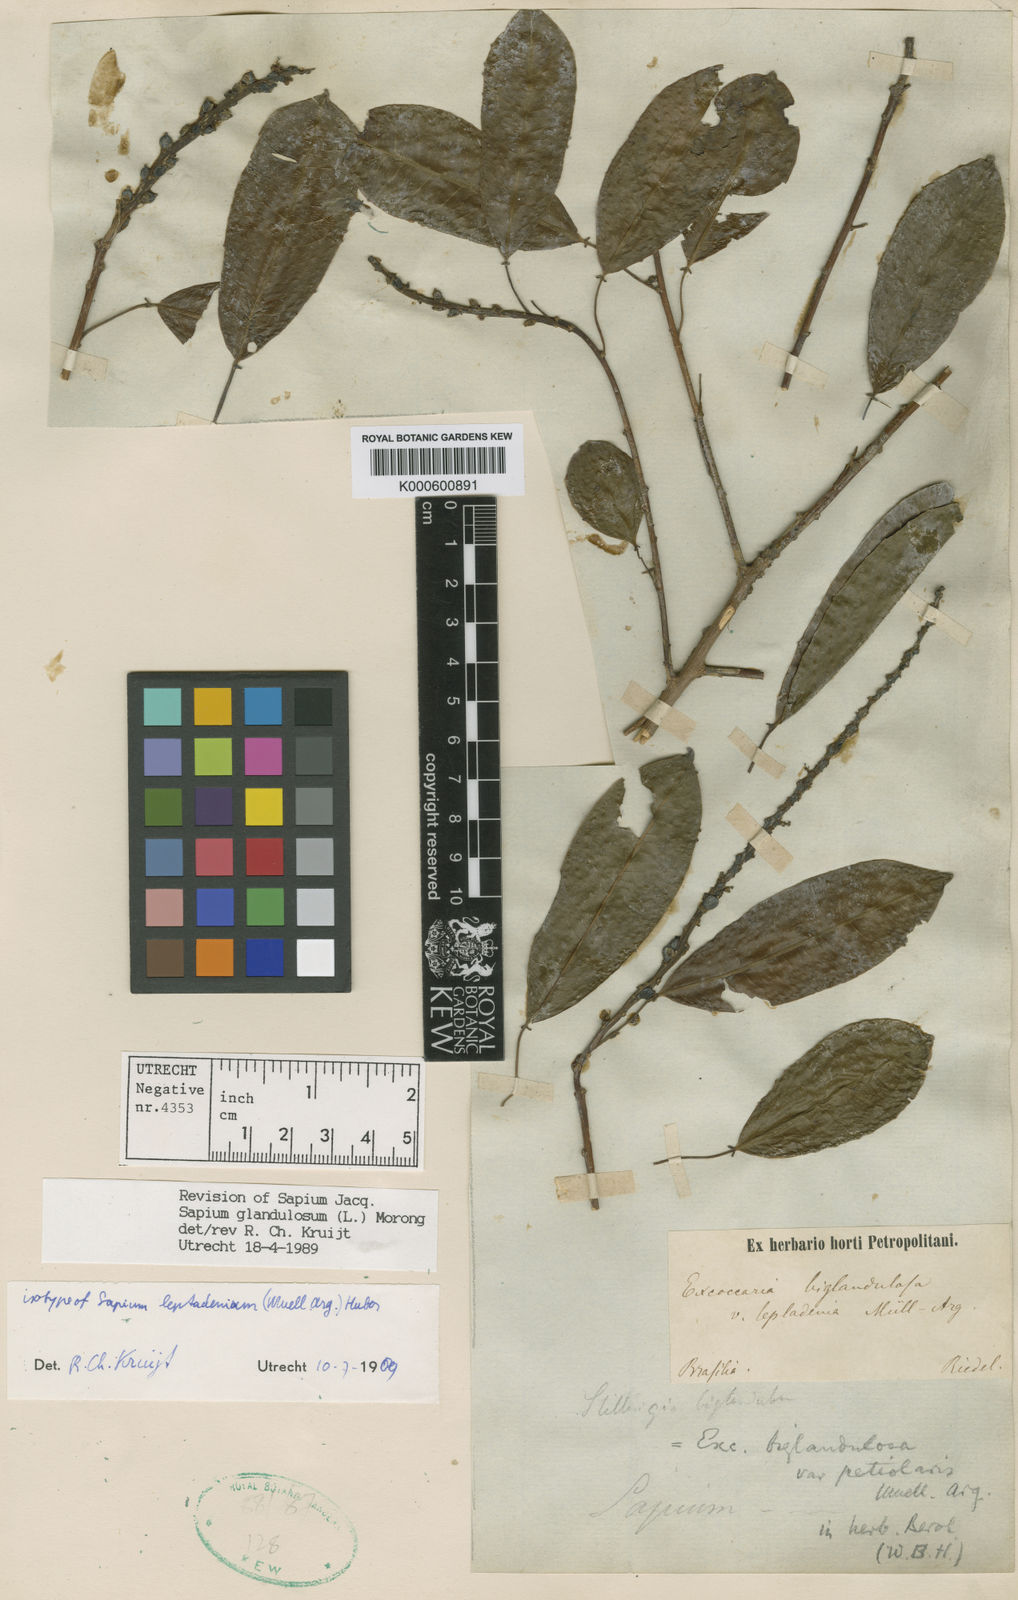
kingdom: Plantae
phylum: Tracheophyta
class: Magnoliopsida
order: Malpighiales
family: Euphorbiaceae
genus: Sapium
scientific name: Sapium glandulosum
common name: Milktree
